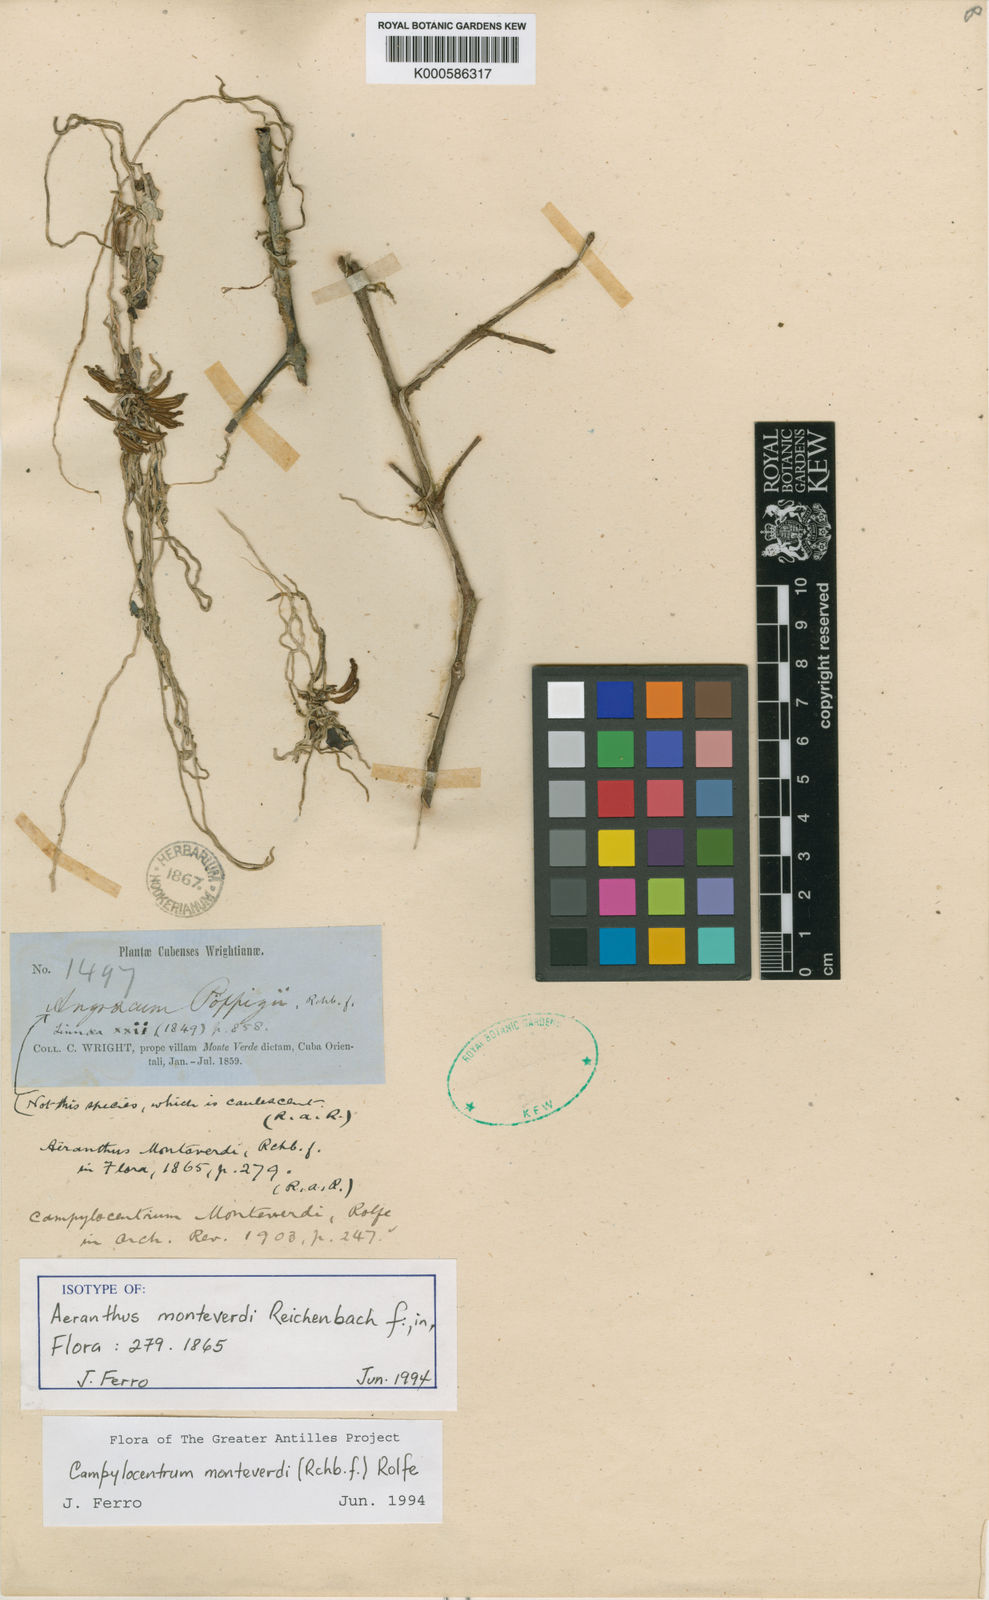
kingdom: Plantae
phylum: Tracheophyta
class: Liliopsida
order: Asparagales
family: Orchidaceae
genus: Dendrophylax
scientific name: Dendrophylax filiformis
